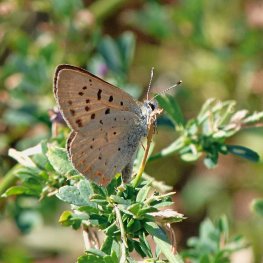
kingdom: Animalia
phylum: Arthropoda
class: Insecta
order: Lepidoptera
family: Sesiidae
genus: Sesia
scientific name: Sesia Lycaena helloides
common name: Purplish Copper
